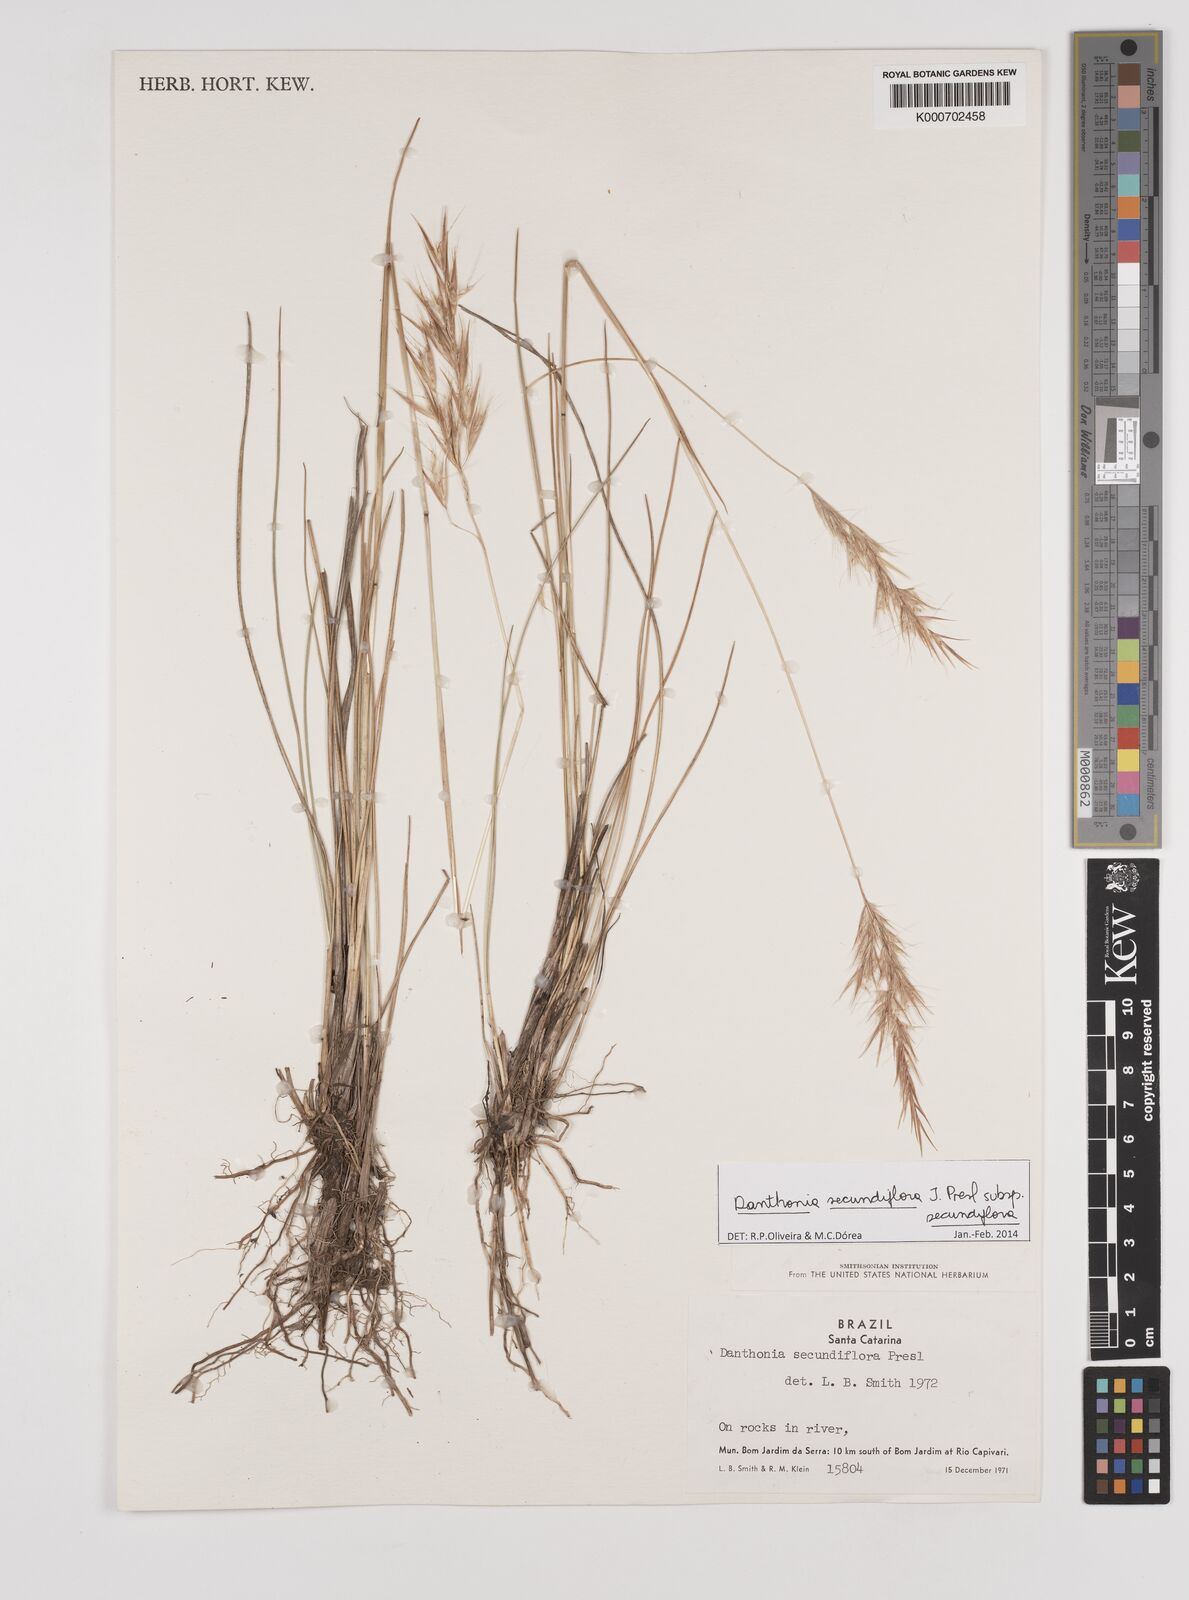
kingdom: Plantae
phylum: Tracheophyta
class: Liliopsida
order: Poales
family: Poaceae
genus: Danthonia
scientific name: Danthonia secundiflora
